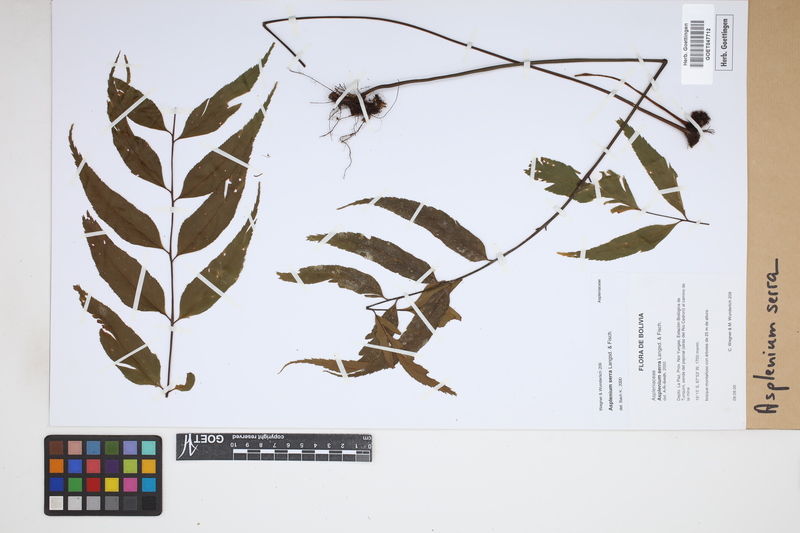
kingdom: Plantae
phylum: Tracheophyta
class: Polypodiopsida
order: Polypodiales
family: Aspleniaceae
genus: Asplenium
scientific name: Asplenium serra
